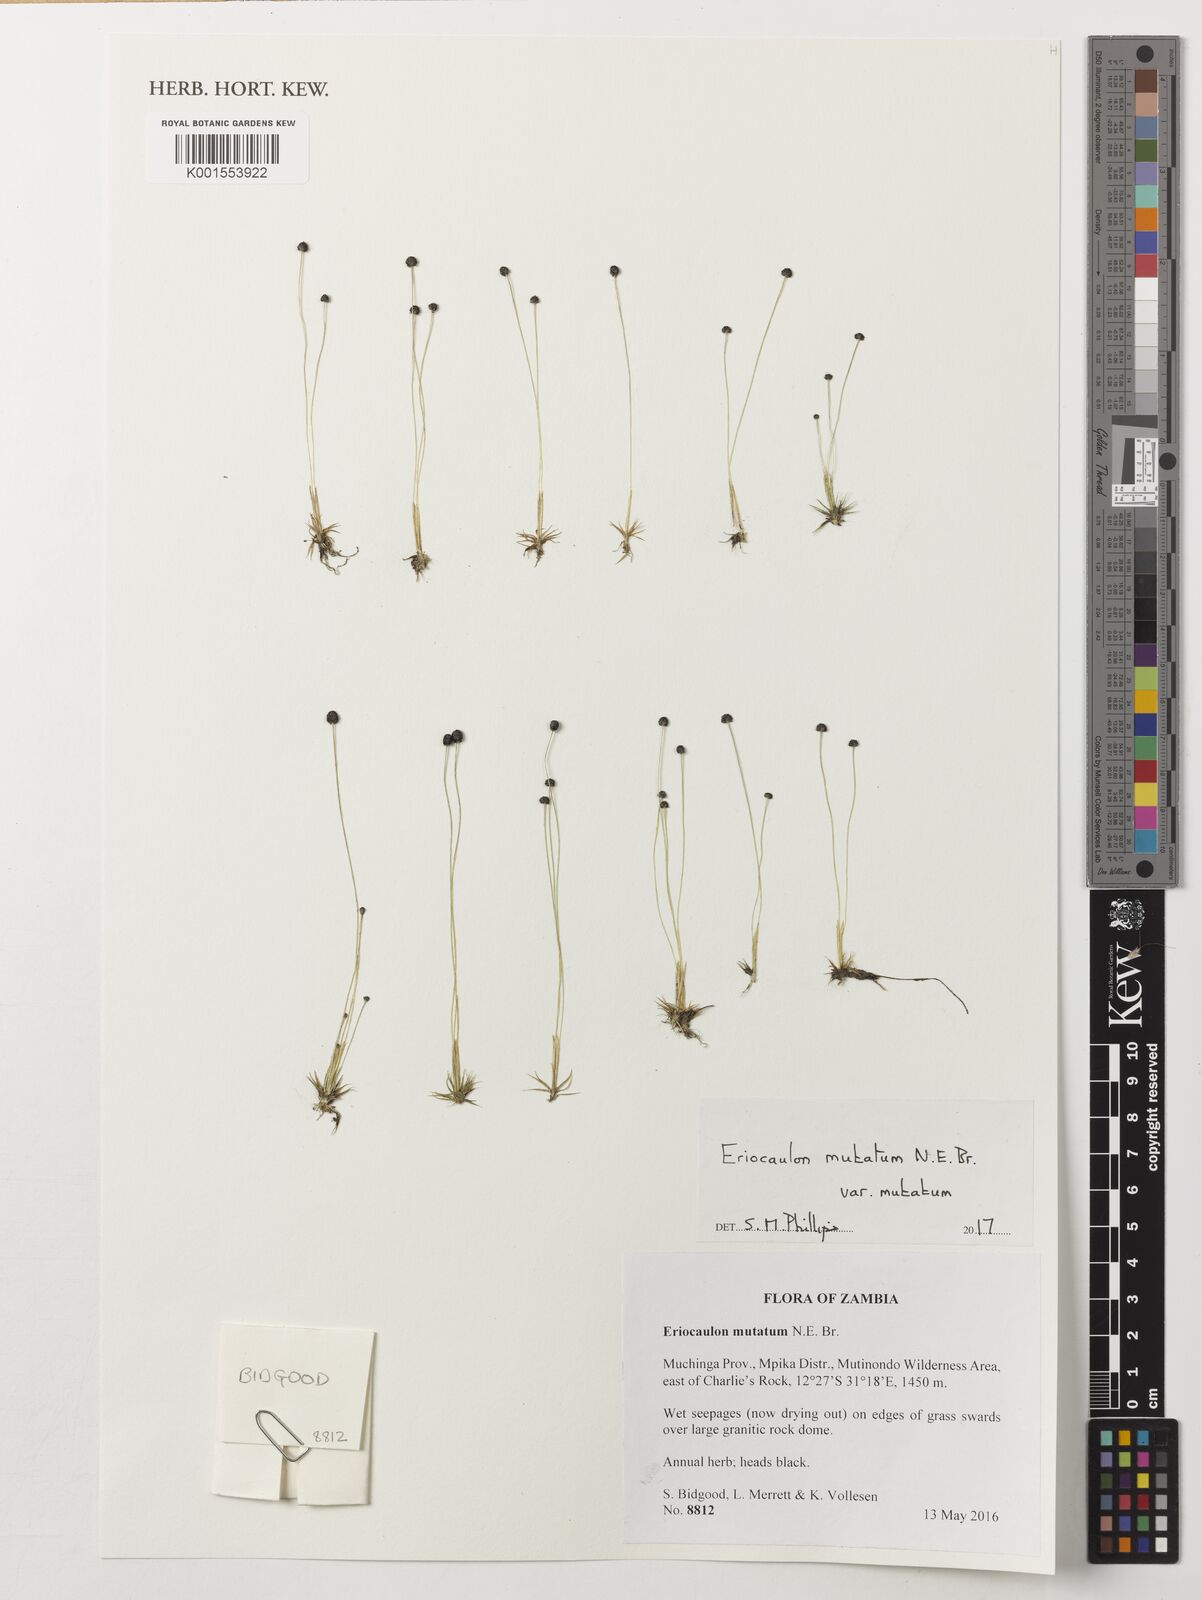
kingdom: Plantae
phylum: Tracheophyta
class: Liliopsida
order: Poales
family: Eriocaulaceae
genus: Eriocaulon
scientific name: Eriocaulon mutatum
